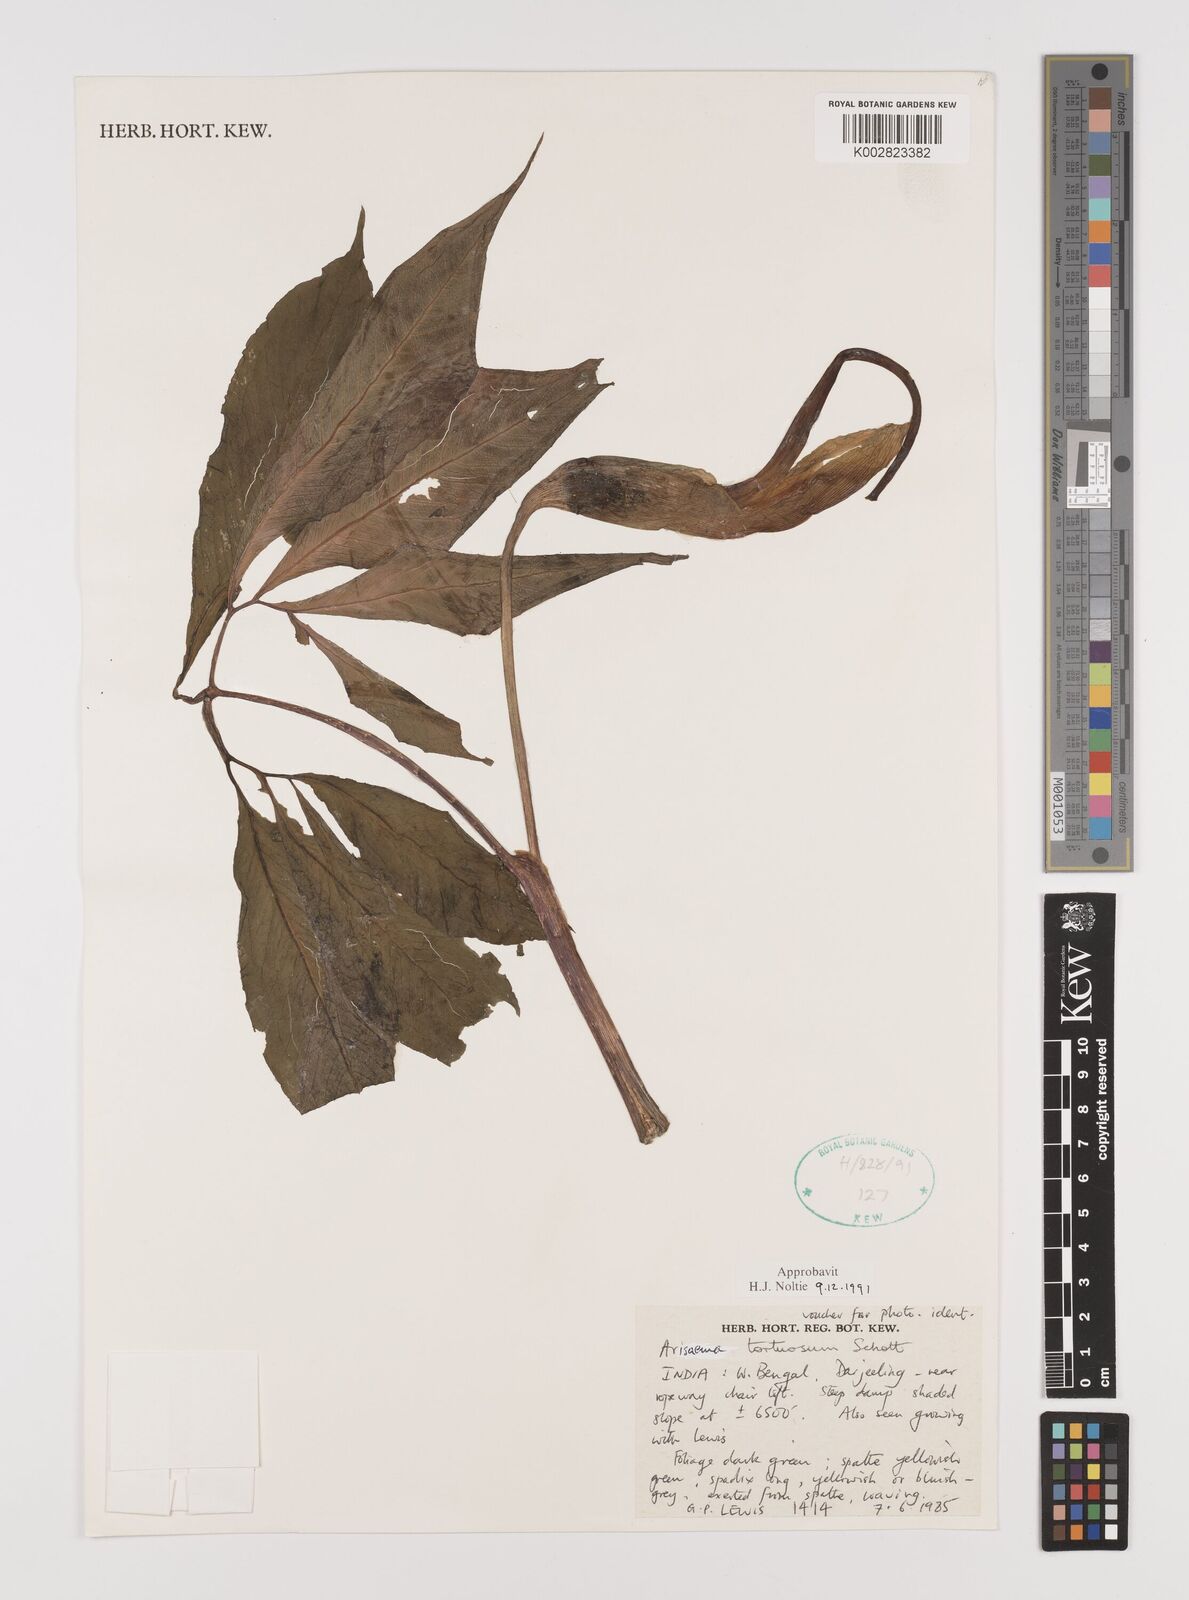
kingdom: Plantae
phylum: Tracheophyta
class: Liliopsida
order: Alismatales
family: Araceae
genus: Arisaema
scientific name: Arisaema tortuosum
